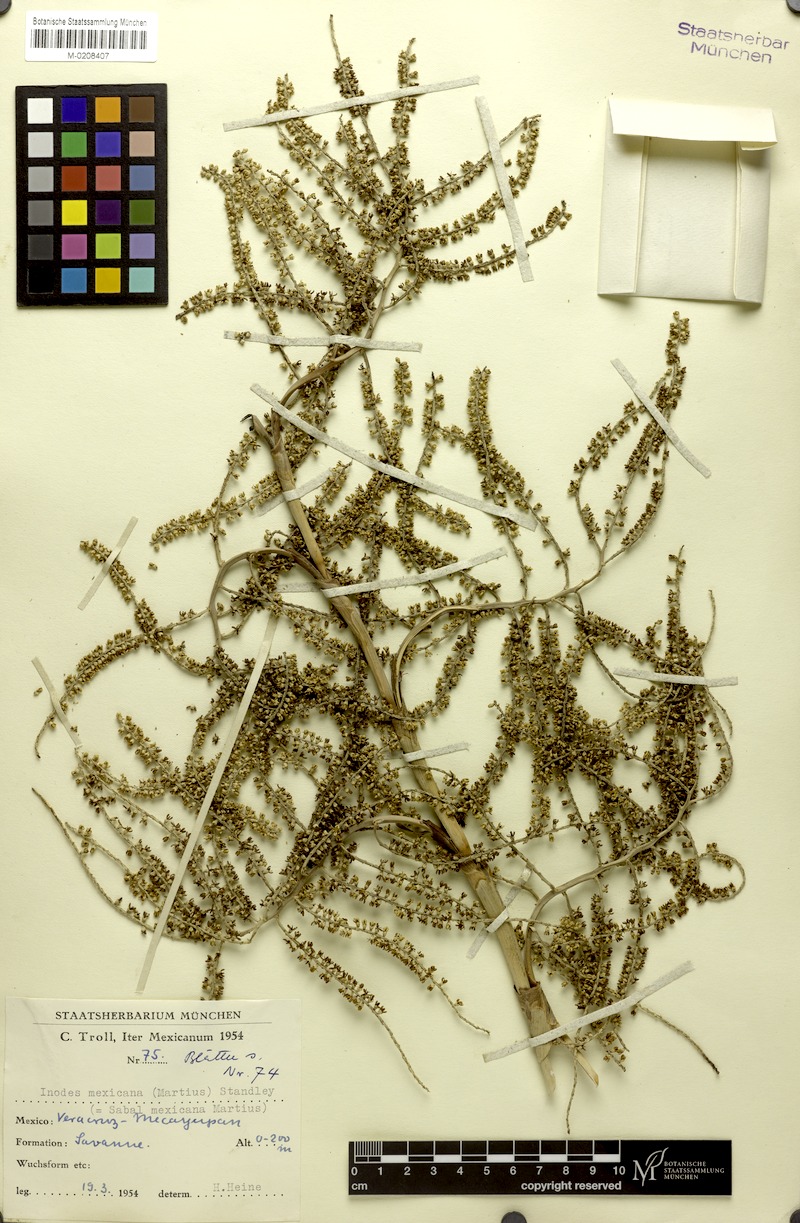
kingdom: Plantae
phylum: Tracheophyta
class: Liliopsida
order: Arecales
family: Arecaceae
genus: Sabal
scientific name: Sabal mexicana
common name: Texas palmetto
